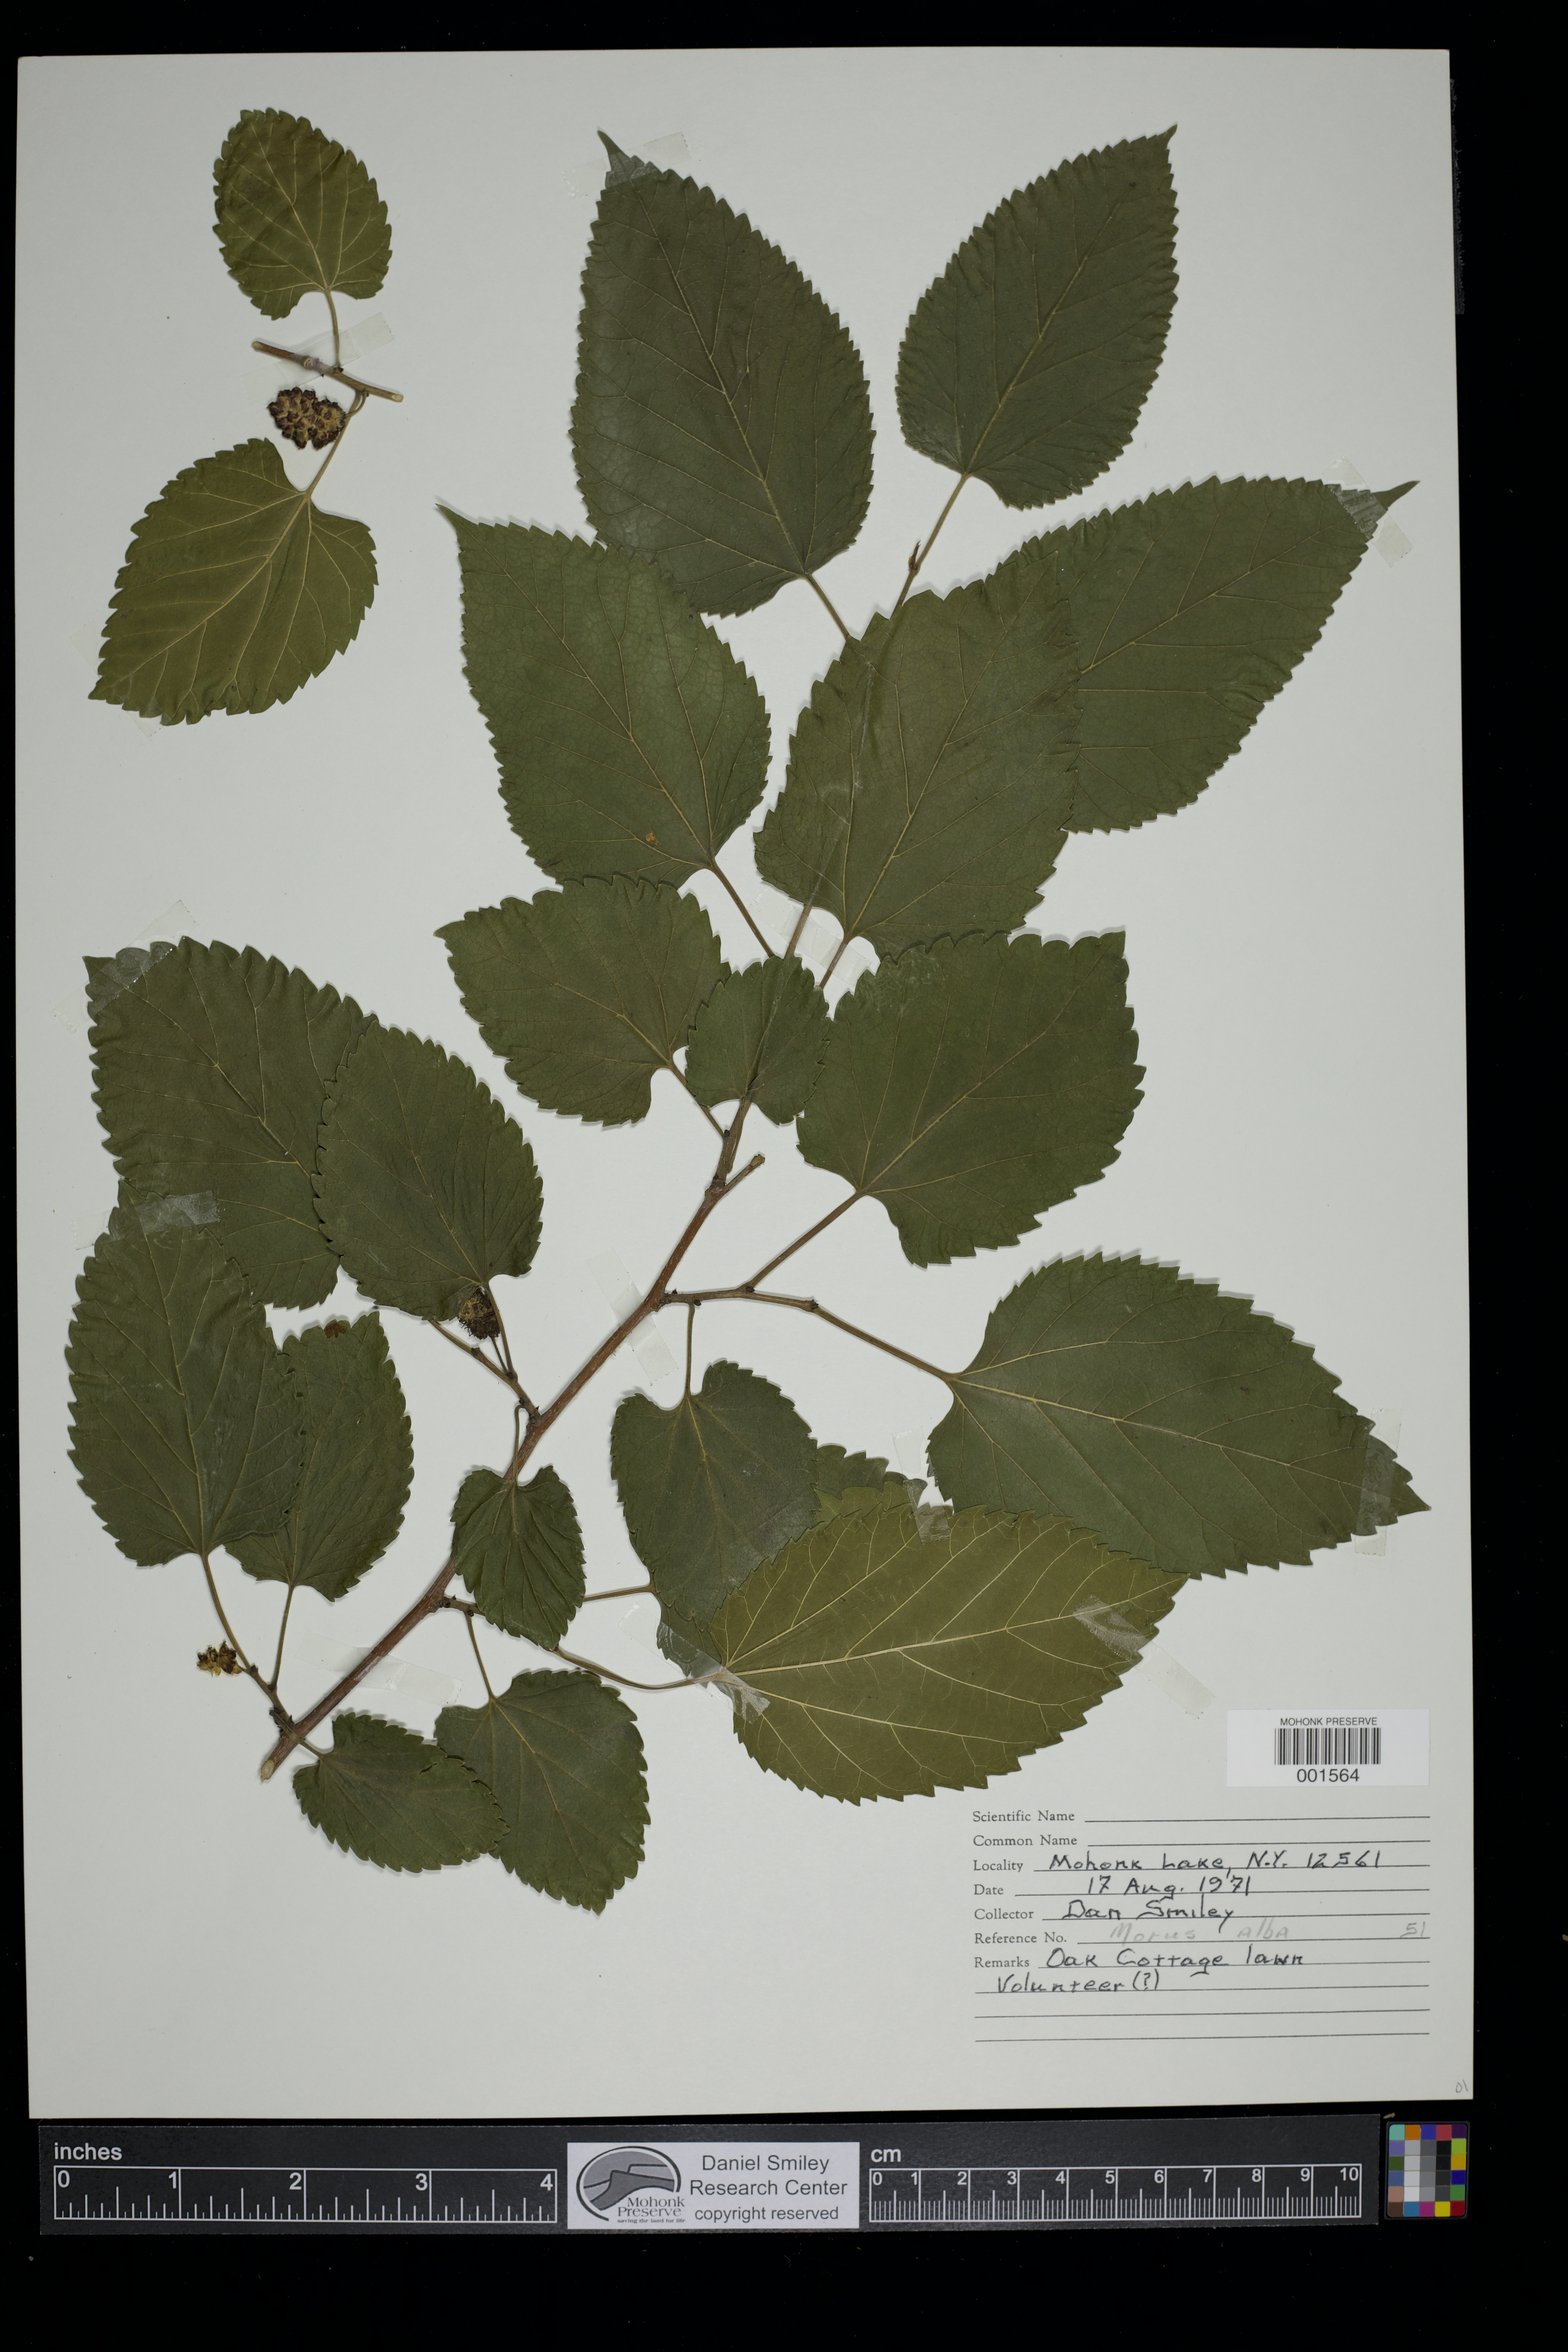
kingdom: Plantae
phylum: Tracheophyta
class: Magnoliopsida
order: Rosales
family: Moraceae
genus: Morus
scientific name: Morus alba
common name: White mulberry
